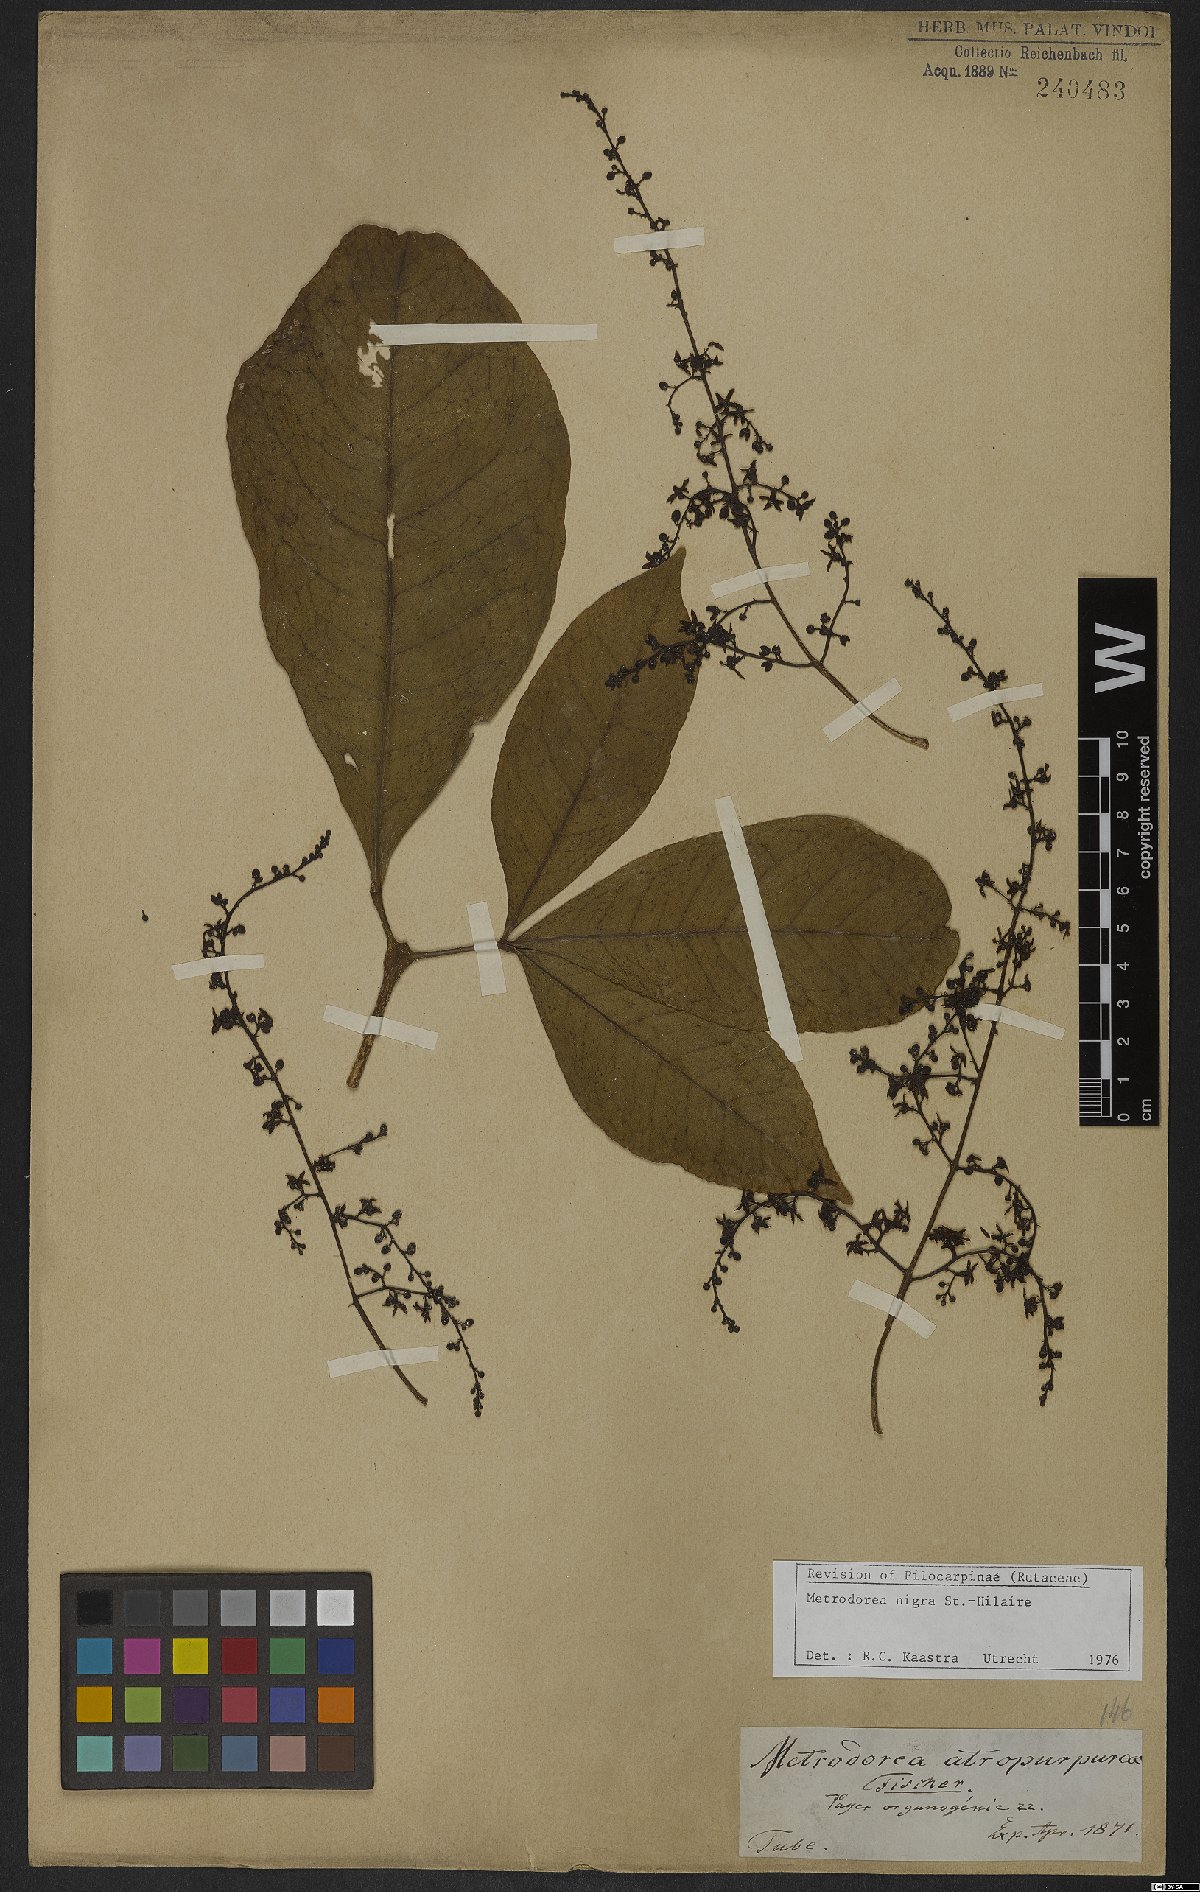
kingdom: Plantae
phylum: Tracheophyta
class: Magnoliopsida
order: Sapindales
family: Rutaceae
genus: Metrodorea
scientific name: Metrodorea nigra
